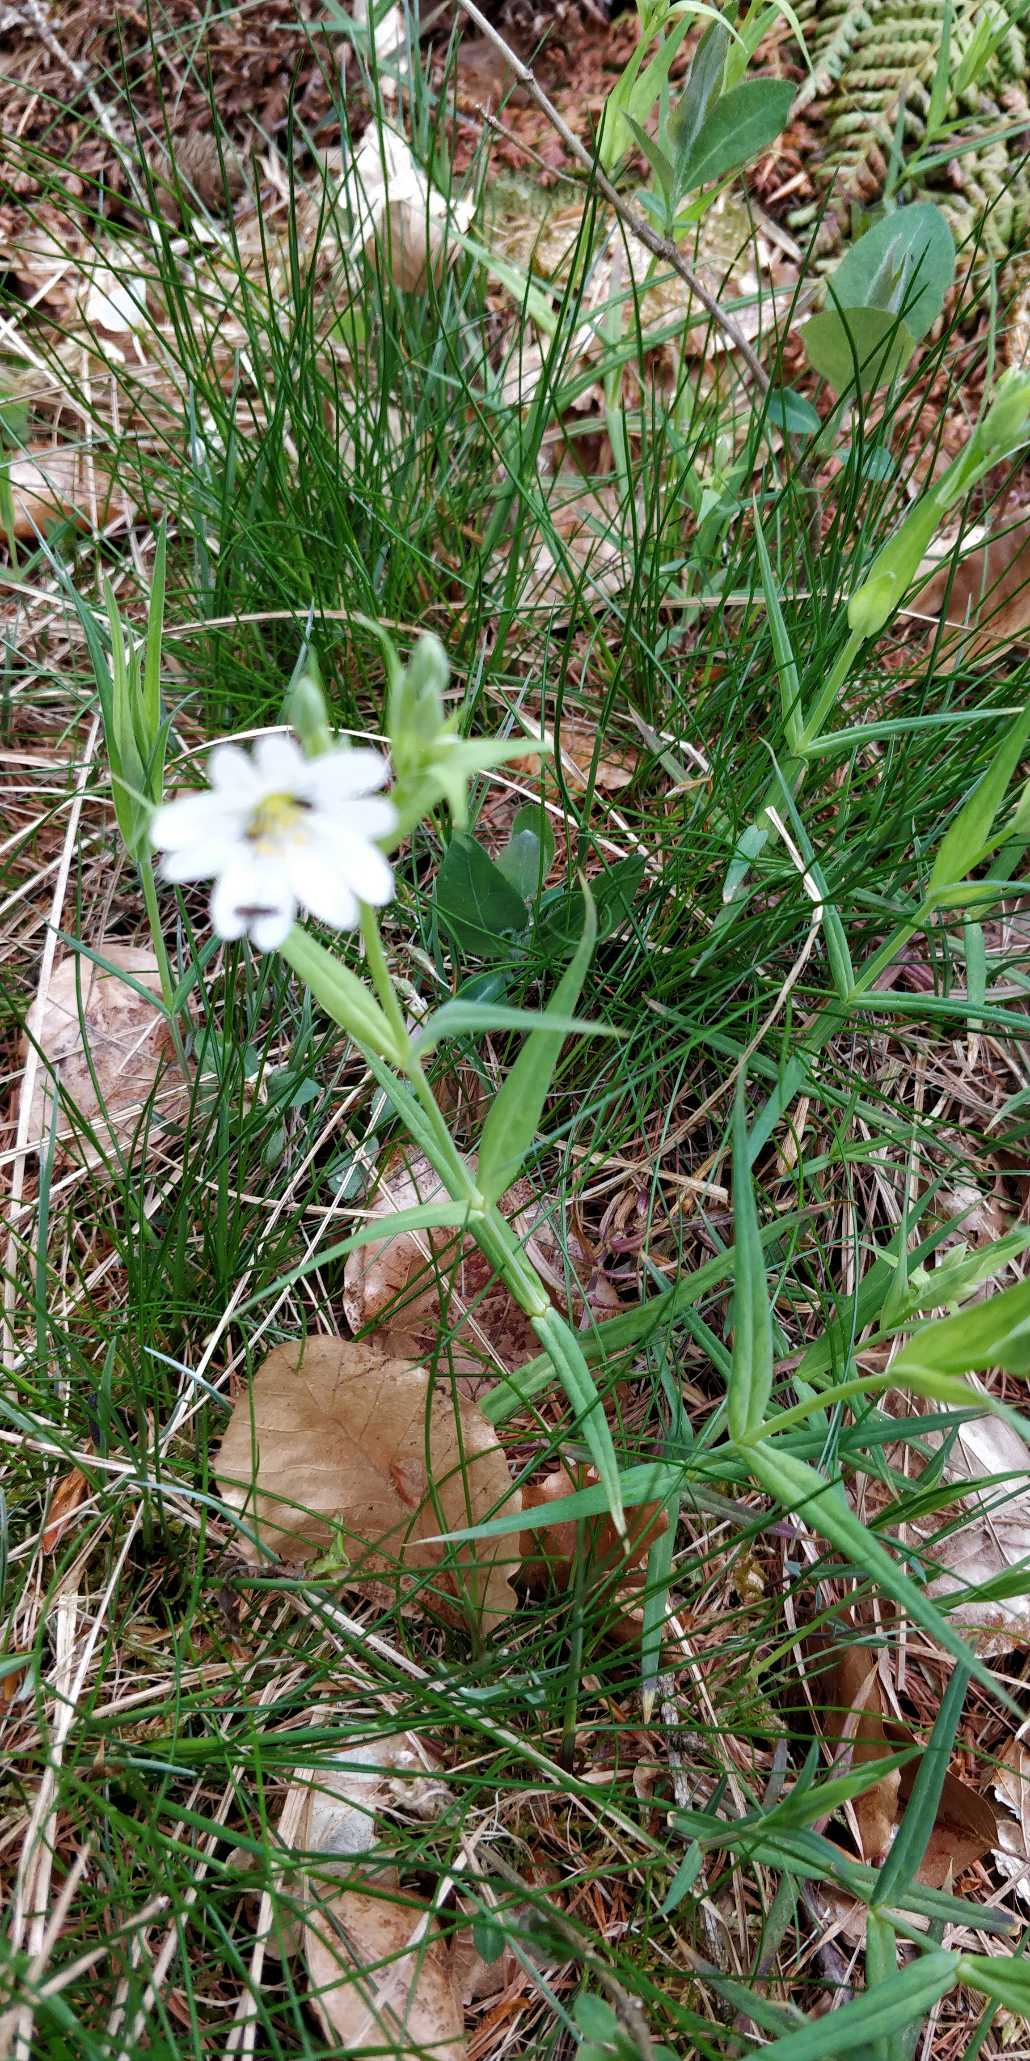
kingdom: Plantae
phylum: Tracheophyta
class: Magnoliopsida
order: Caryophyllales
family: Caryophyllaceae
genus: Rabelera
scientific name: Rabelera holostea
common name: Stor fladstjerne
